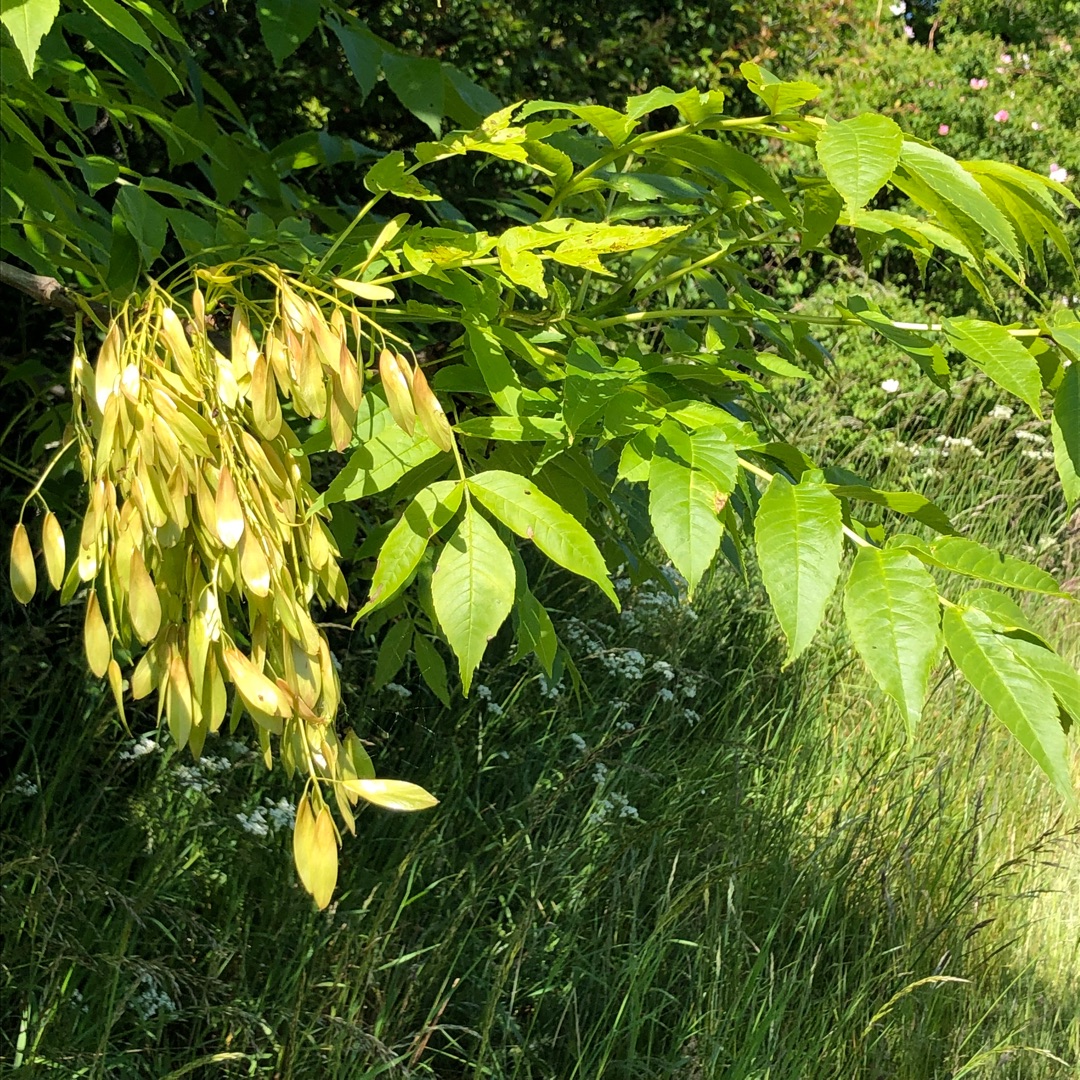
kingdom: Plantae
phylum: Tracheophyta
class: Magnoliopsida
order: Lamiales
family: Oleaceae
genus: Fraxinus
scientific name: Fraxinus excelsior
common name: Ask
